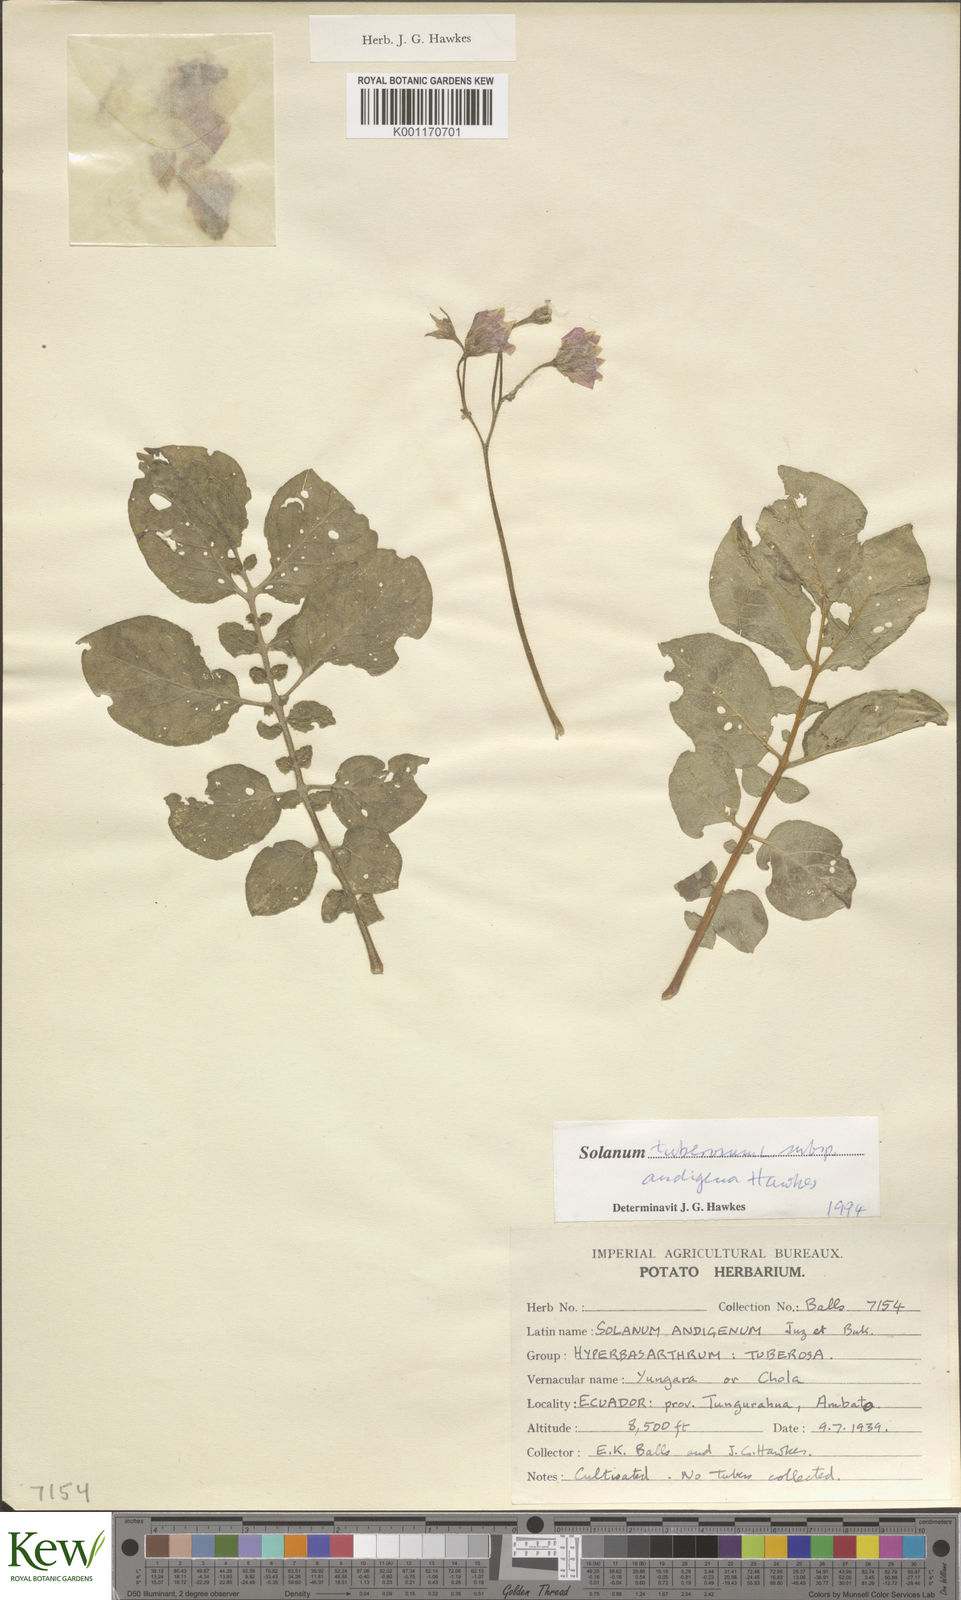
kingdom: Plantae
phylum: Tracheophyta
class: Magnoliopsida
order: Solanales
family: Solanaceae
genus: Solanum
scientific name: Solanum tuberosum
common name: Potato
